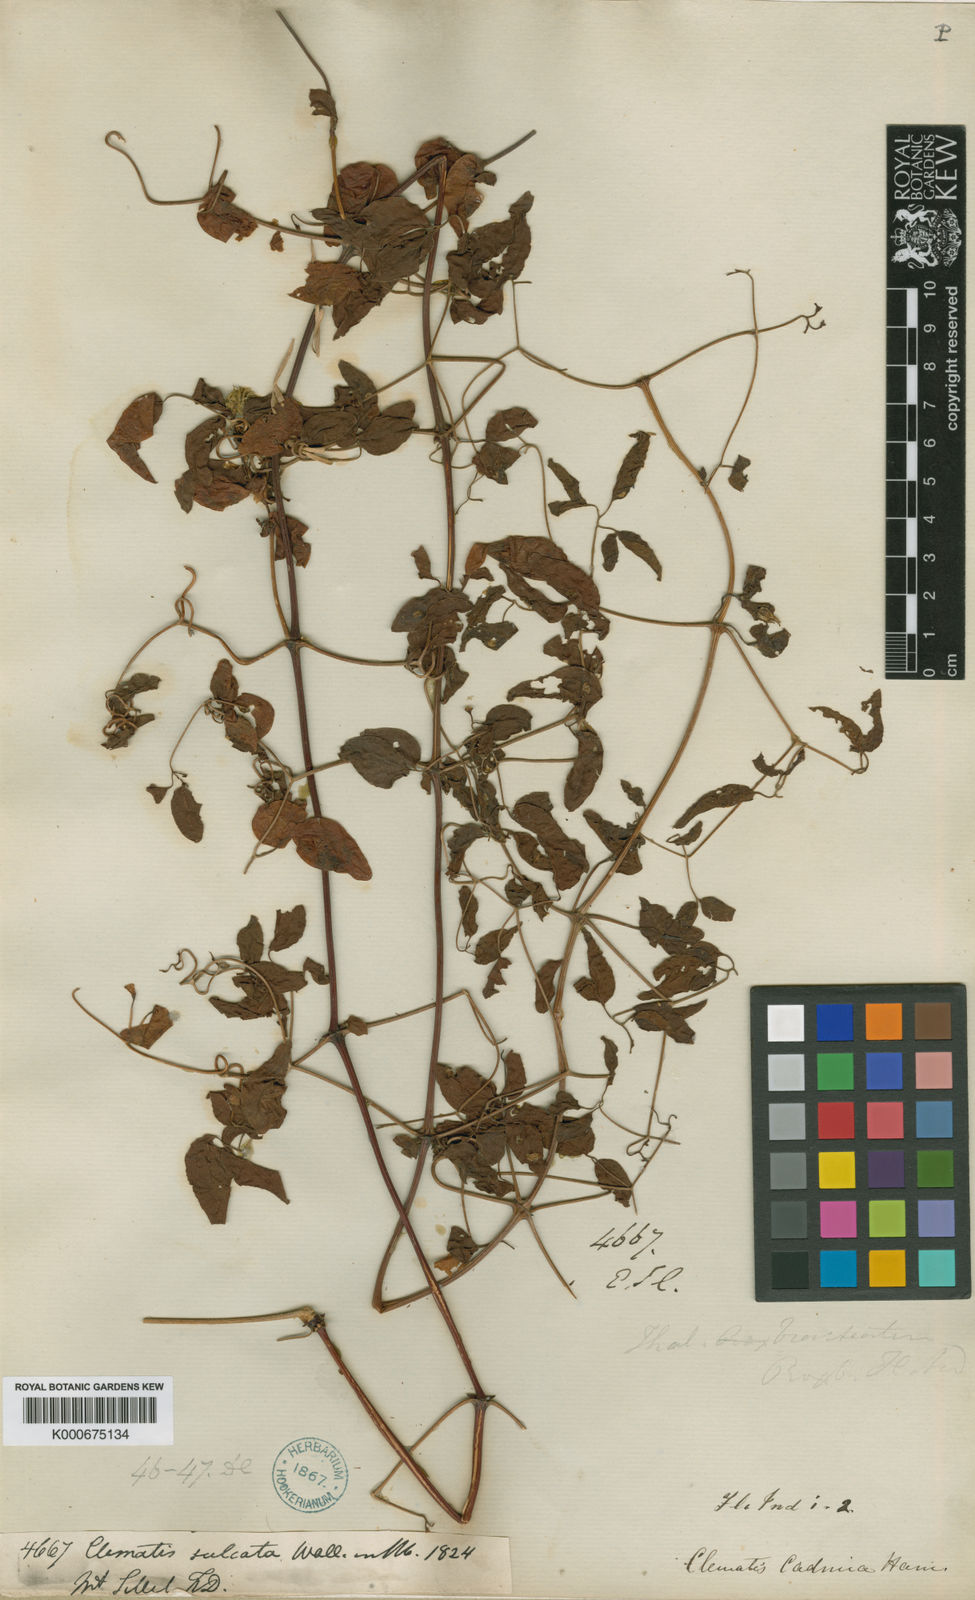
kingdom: Plantae
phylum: Tracheophyta
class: Magnoliopsida
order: Ranunculales
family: Ranunculaceae
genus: Clematis
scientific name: Clematis cadmia
